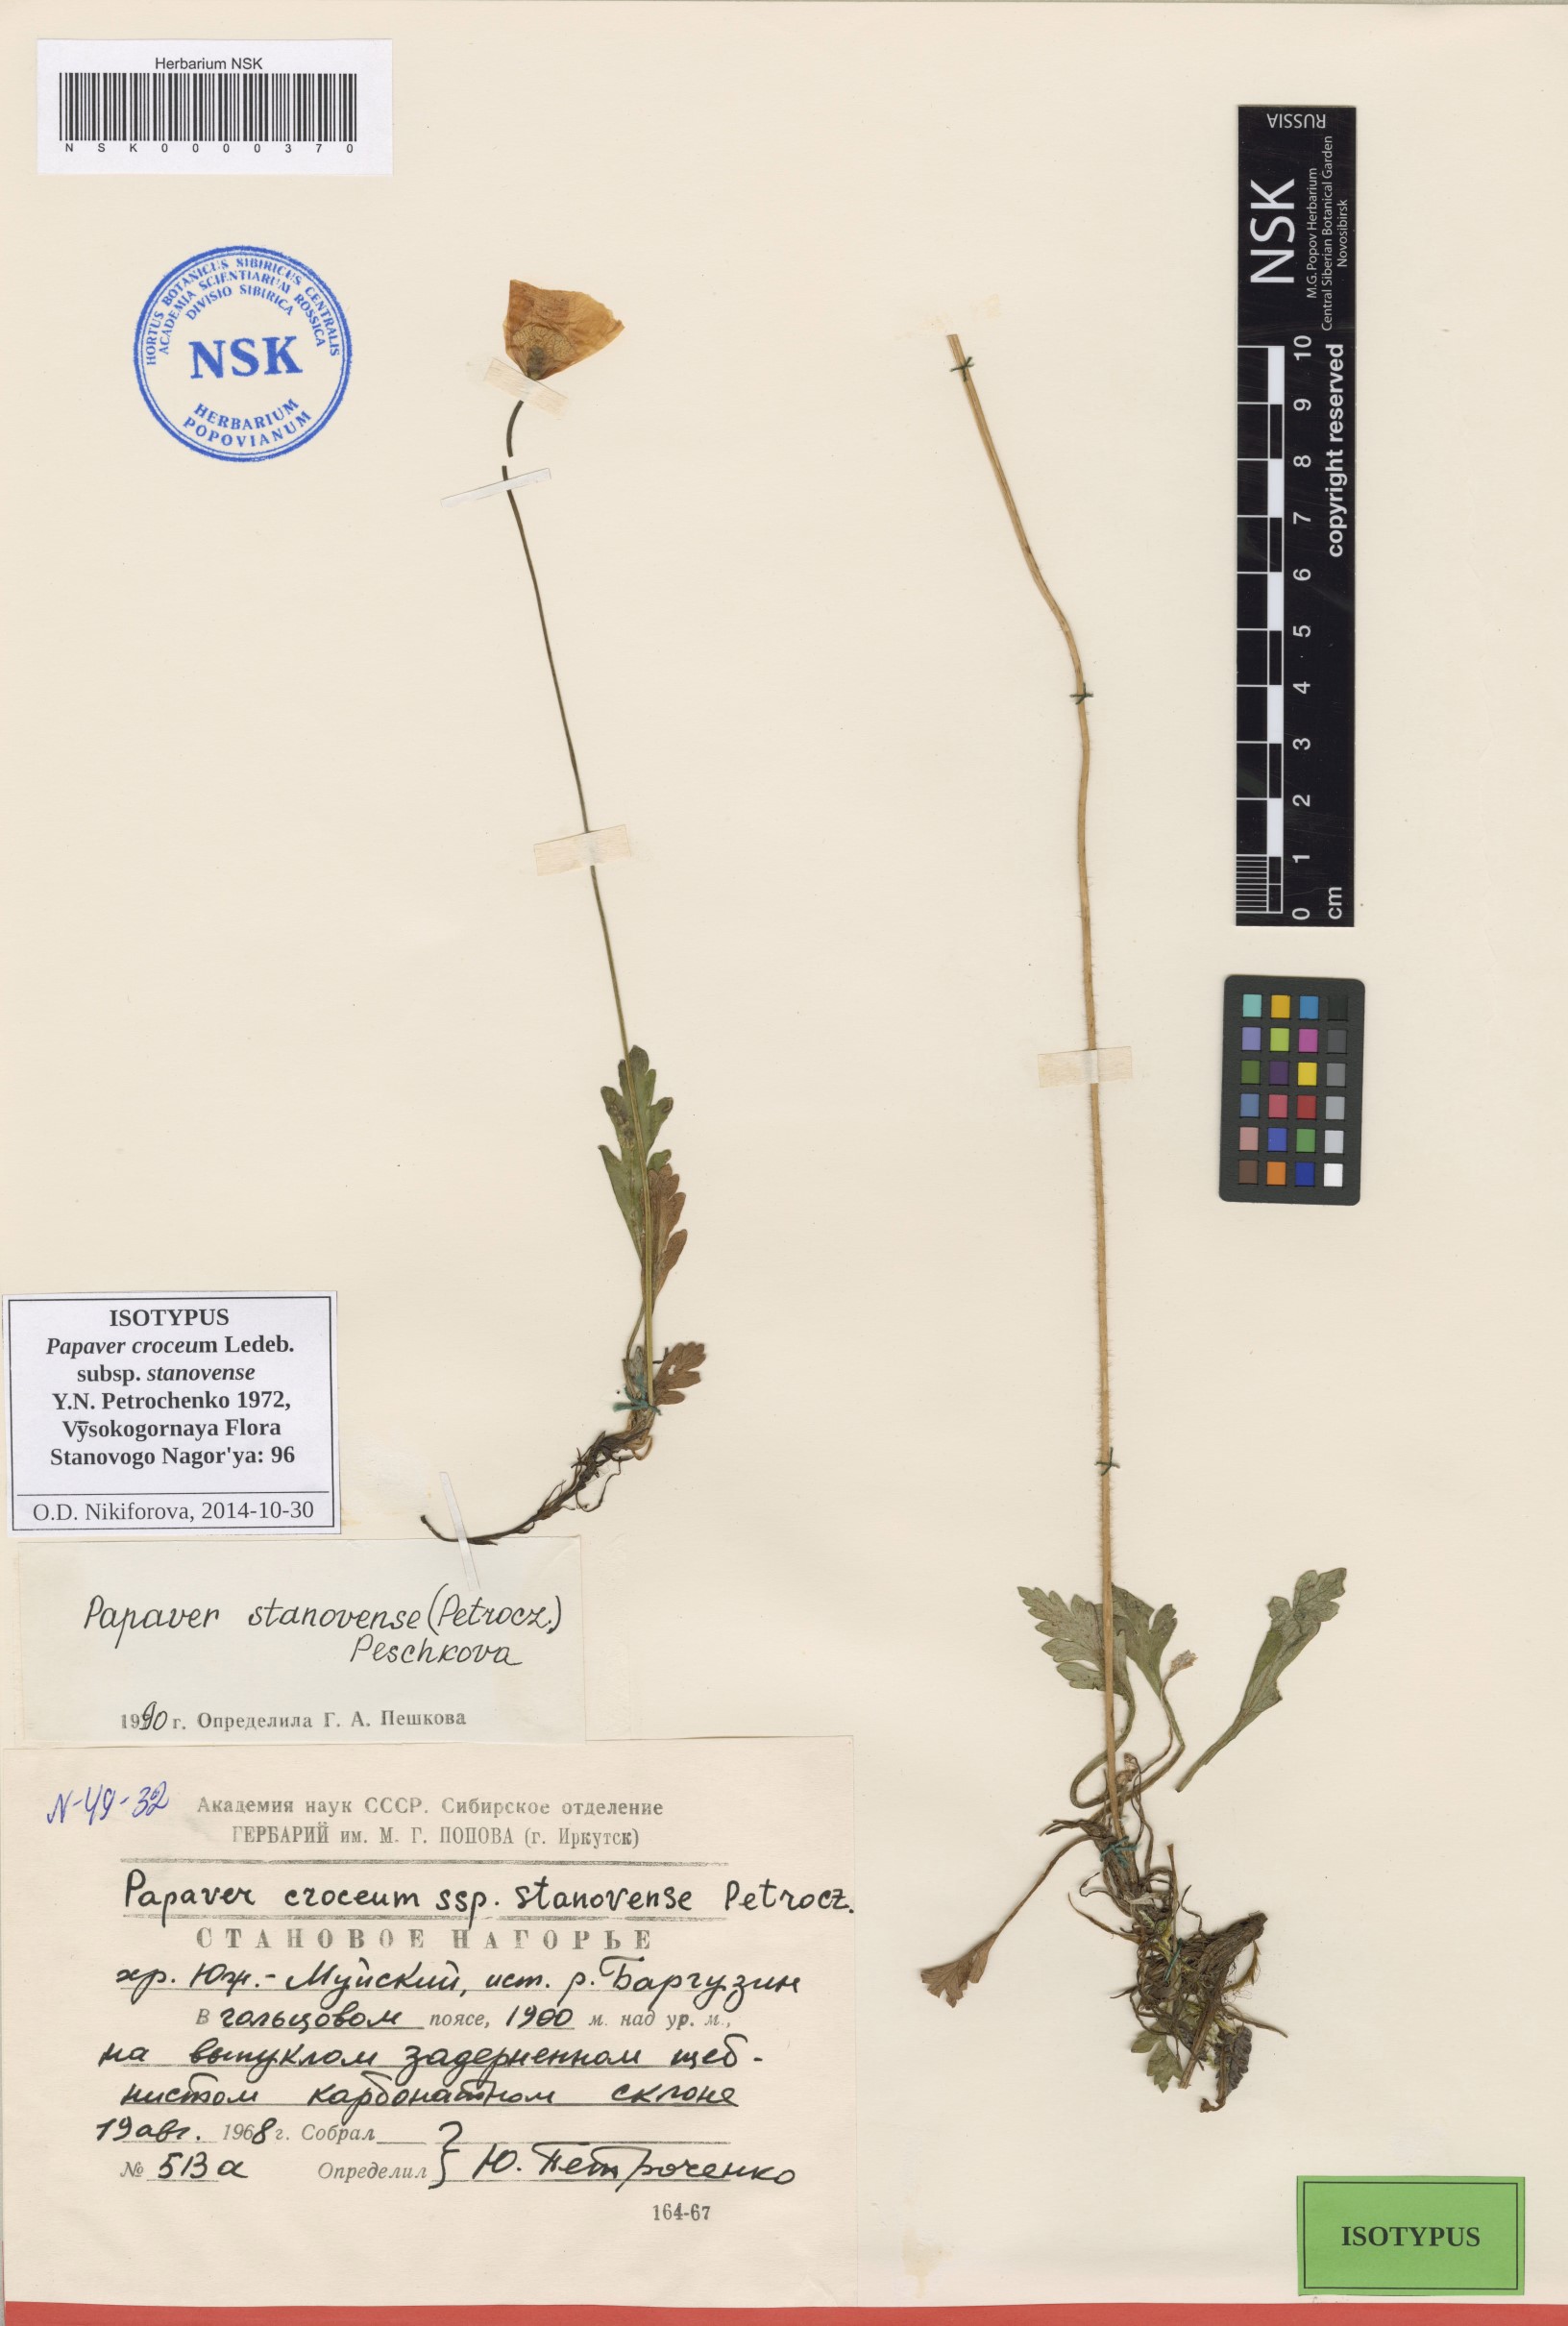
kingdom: Plantae
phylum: Tracheophyta
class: Magnoliopsida
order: Ranunculales
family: Papaveraceae
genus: Papaver
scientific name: Papaver stanovense
